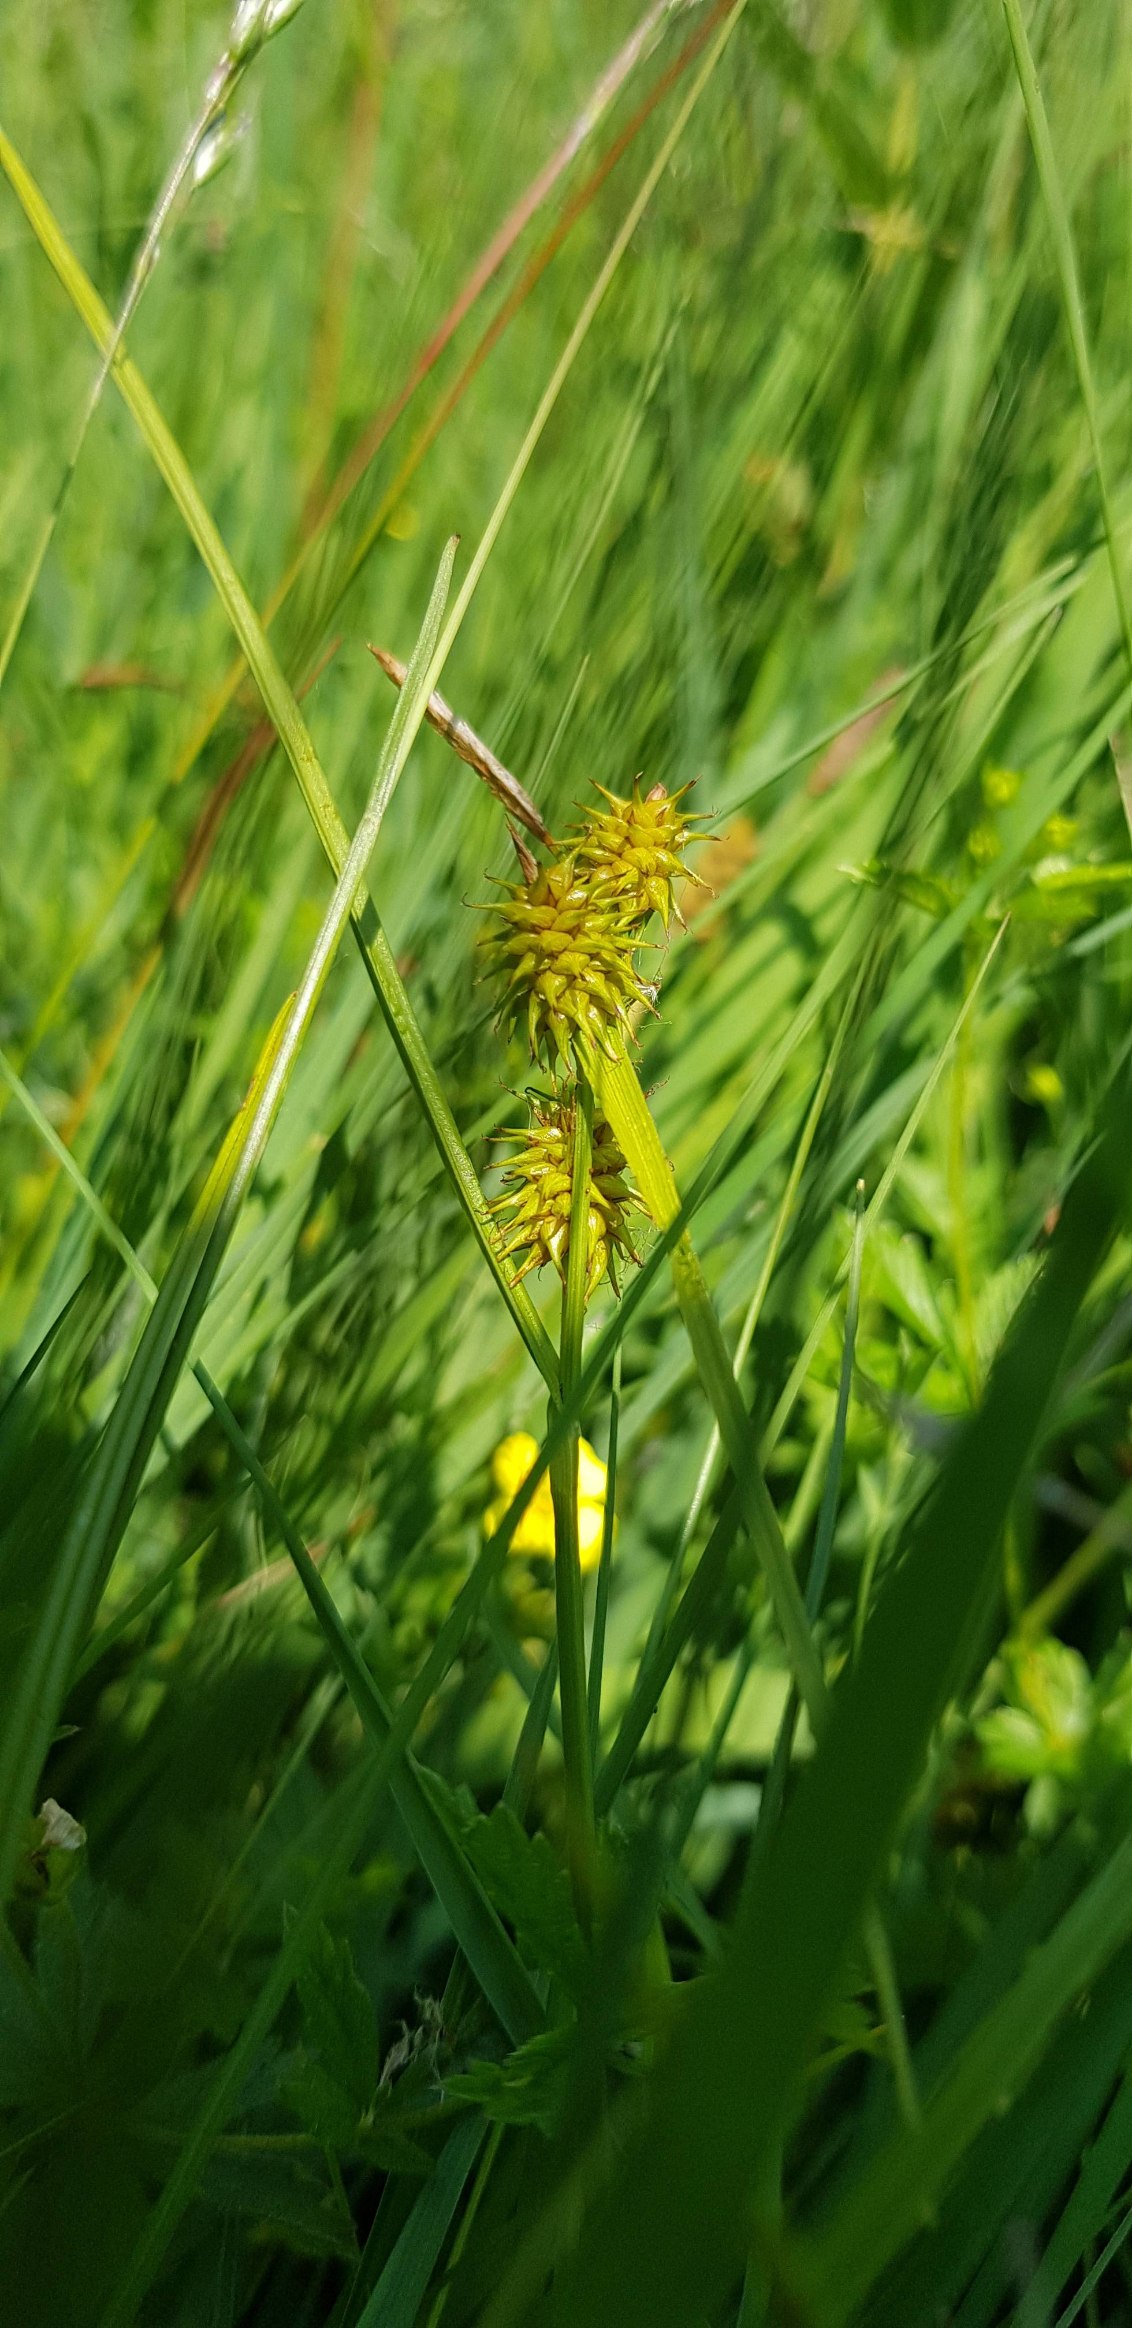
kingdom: Plantae
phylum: Tracheophyta
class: Liliopsida
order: Poales
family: Cyperaceae
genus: Carex
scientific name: Carex flava
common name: Gul star
